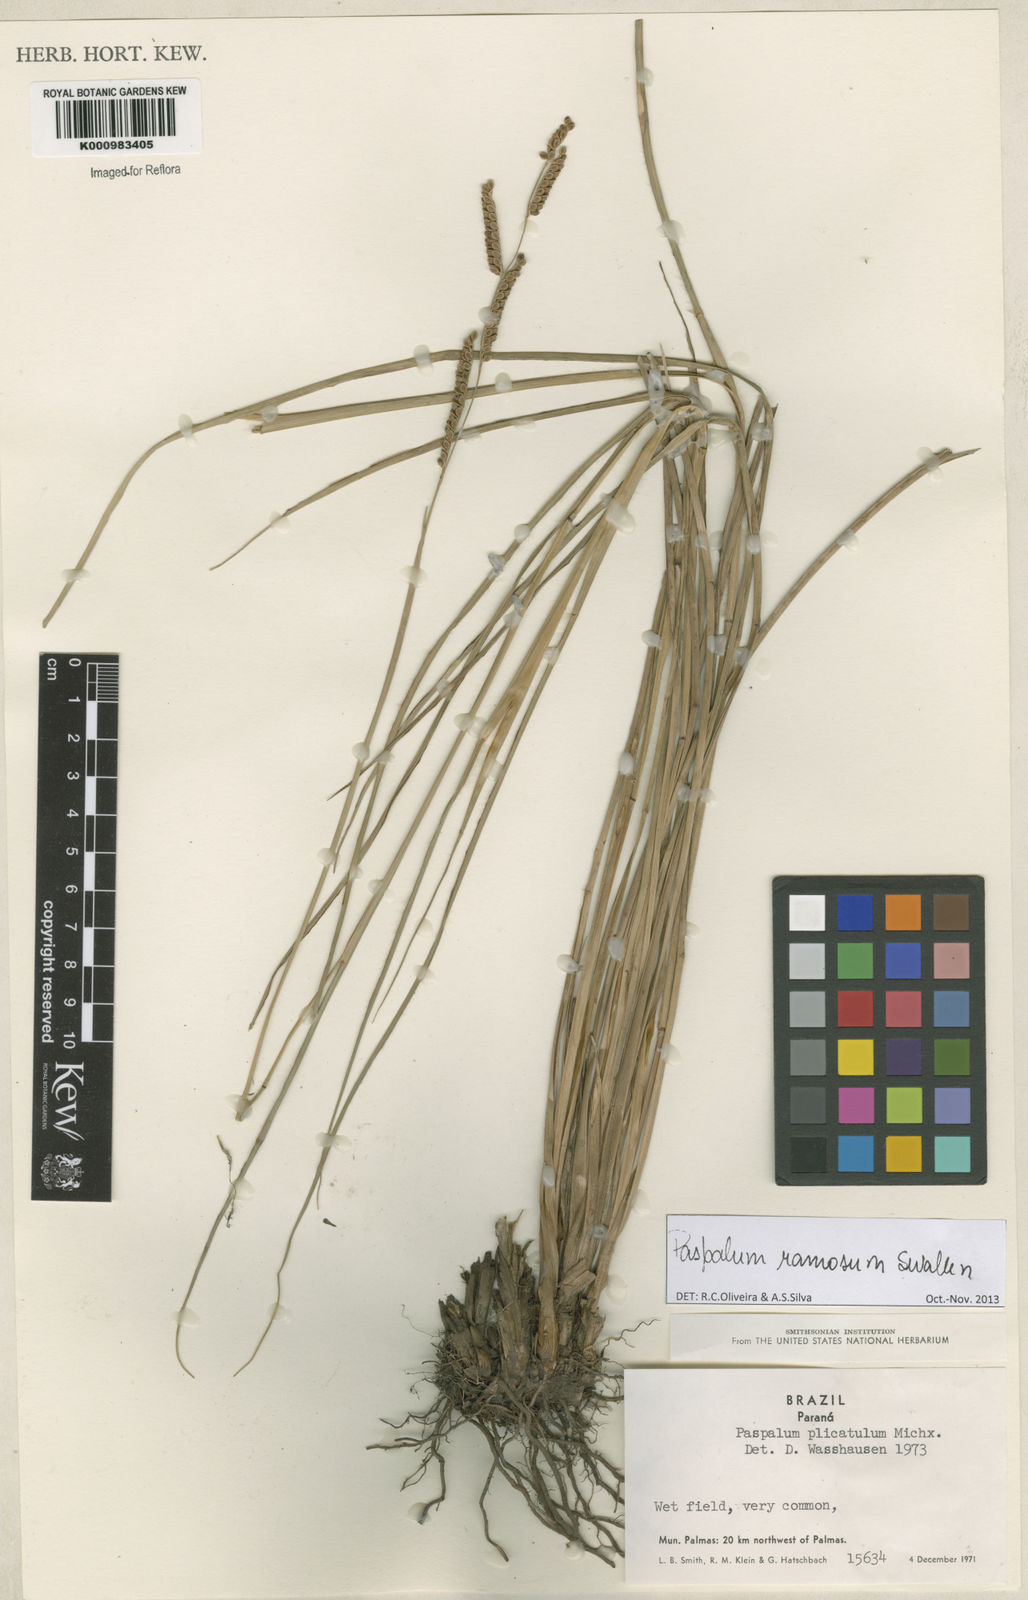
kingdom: Plantae
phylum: Tracheophyta
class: Liliopsida
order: Poales
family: Poaceae
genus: Paspalum
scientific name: Paspalum plicatulum
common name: Top paspalum
